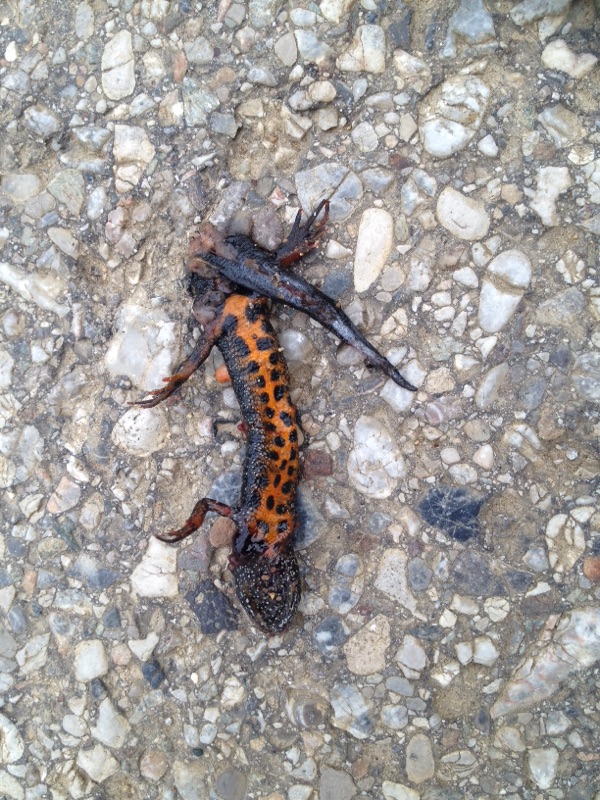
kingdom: Animalia
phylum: Chordata
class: Amphibia
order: Caudata
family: Salamandridae
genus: Triturus
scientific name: Triturus dobrogicus
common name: Danube crested newt
